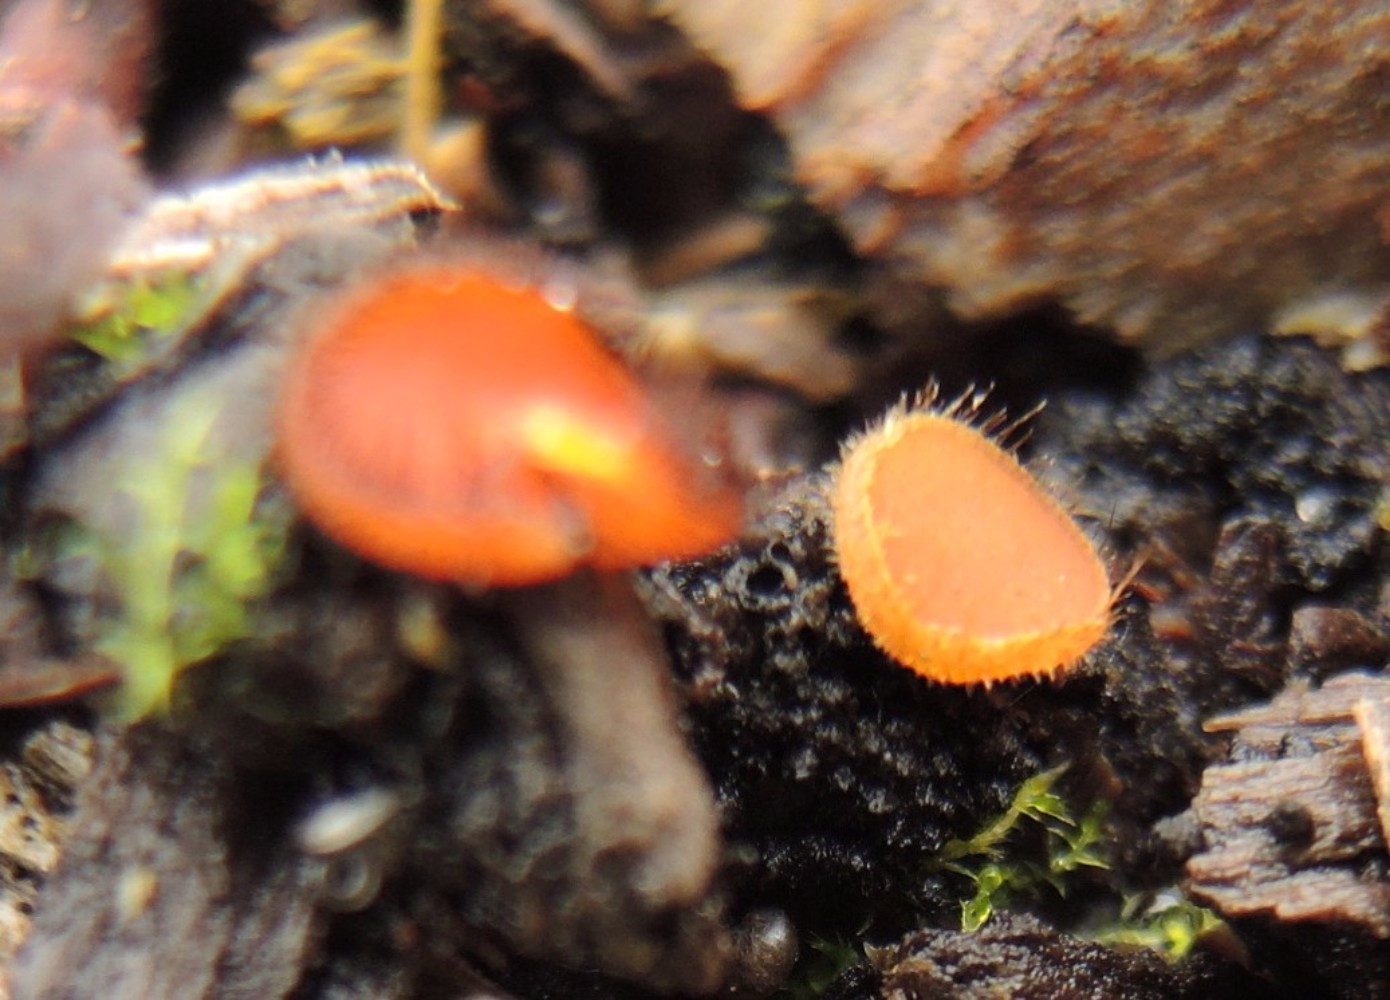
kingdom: Fungi
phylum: Ascomycota
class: Pezizomycetes
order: Pezizales
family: Pyronemataceae
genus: Scutellinia
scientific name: Scutellinia scutellata
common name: frynset skjoldbæger
